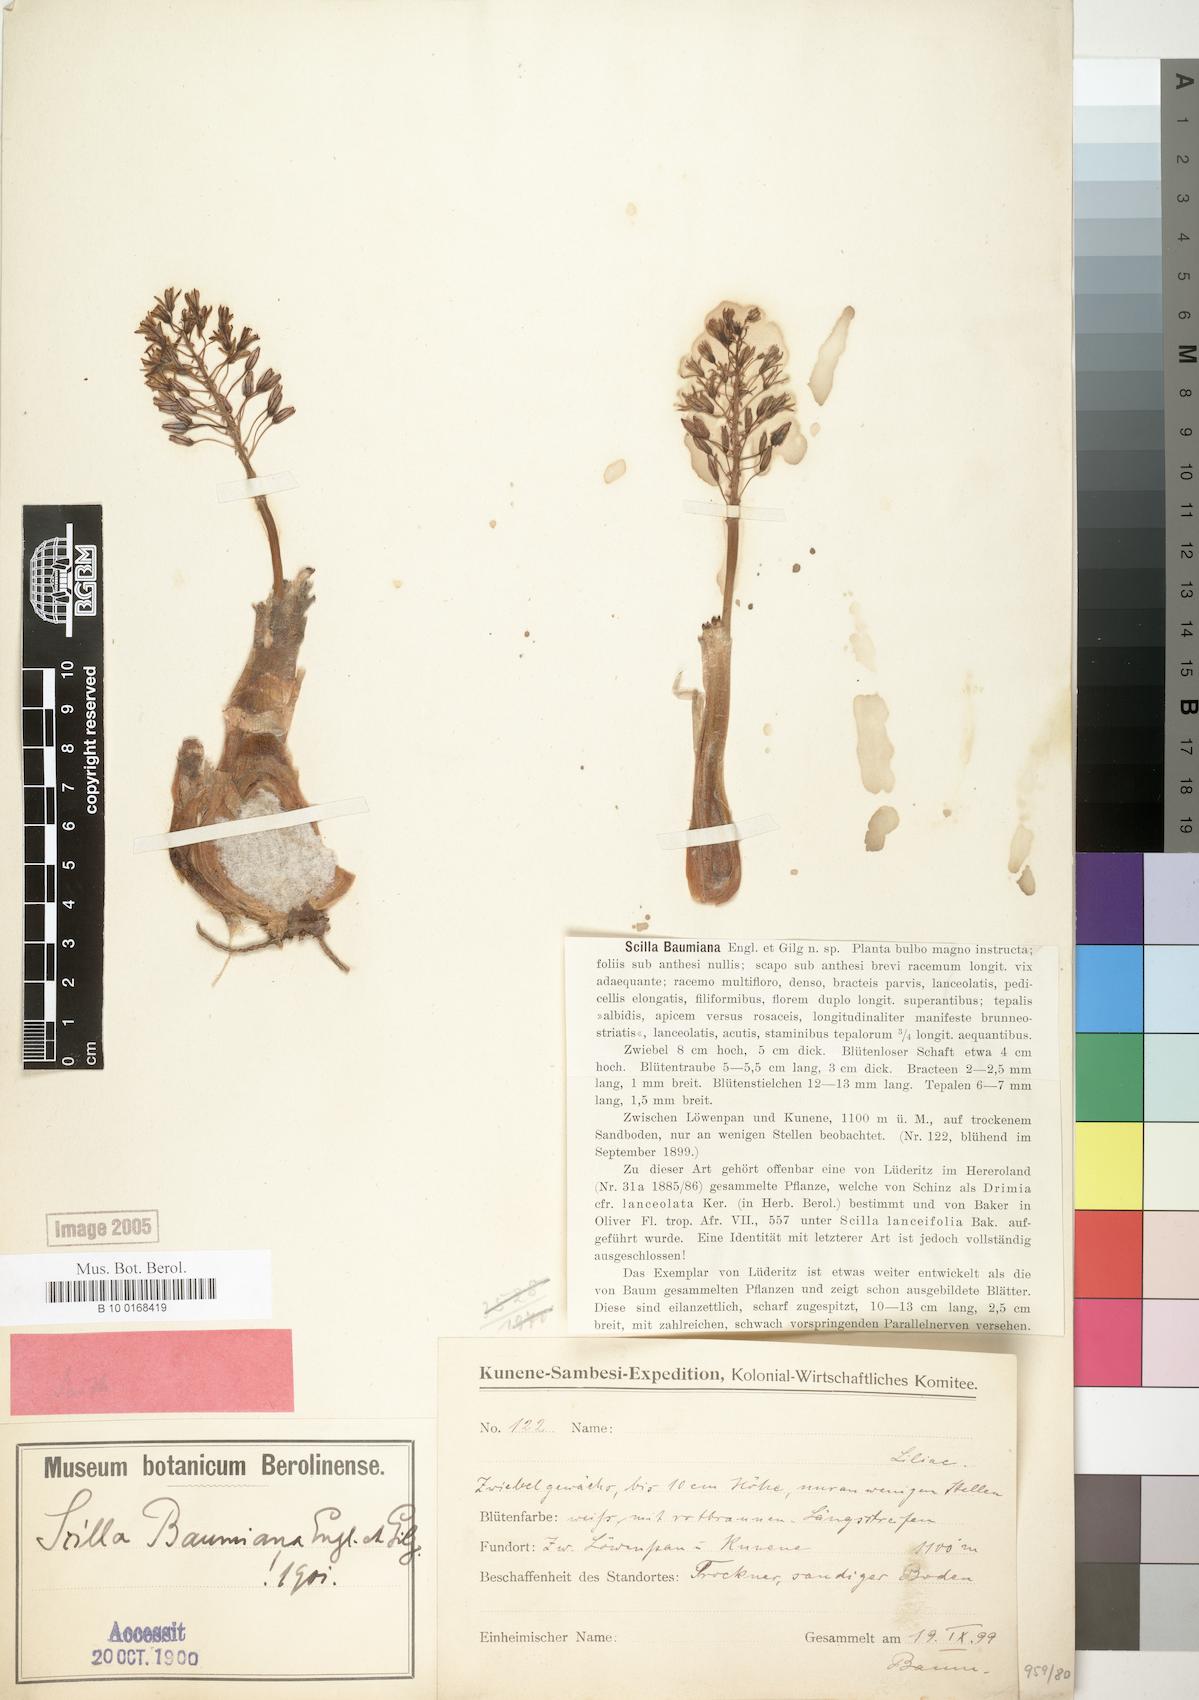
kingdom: Plantae
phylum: Tracheophyta
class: Liliopsida
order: Asparagales
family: Asparagaceae
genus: Scilla
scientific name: Scilla baumiana
